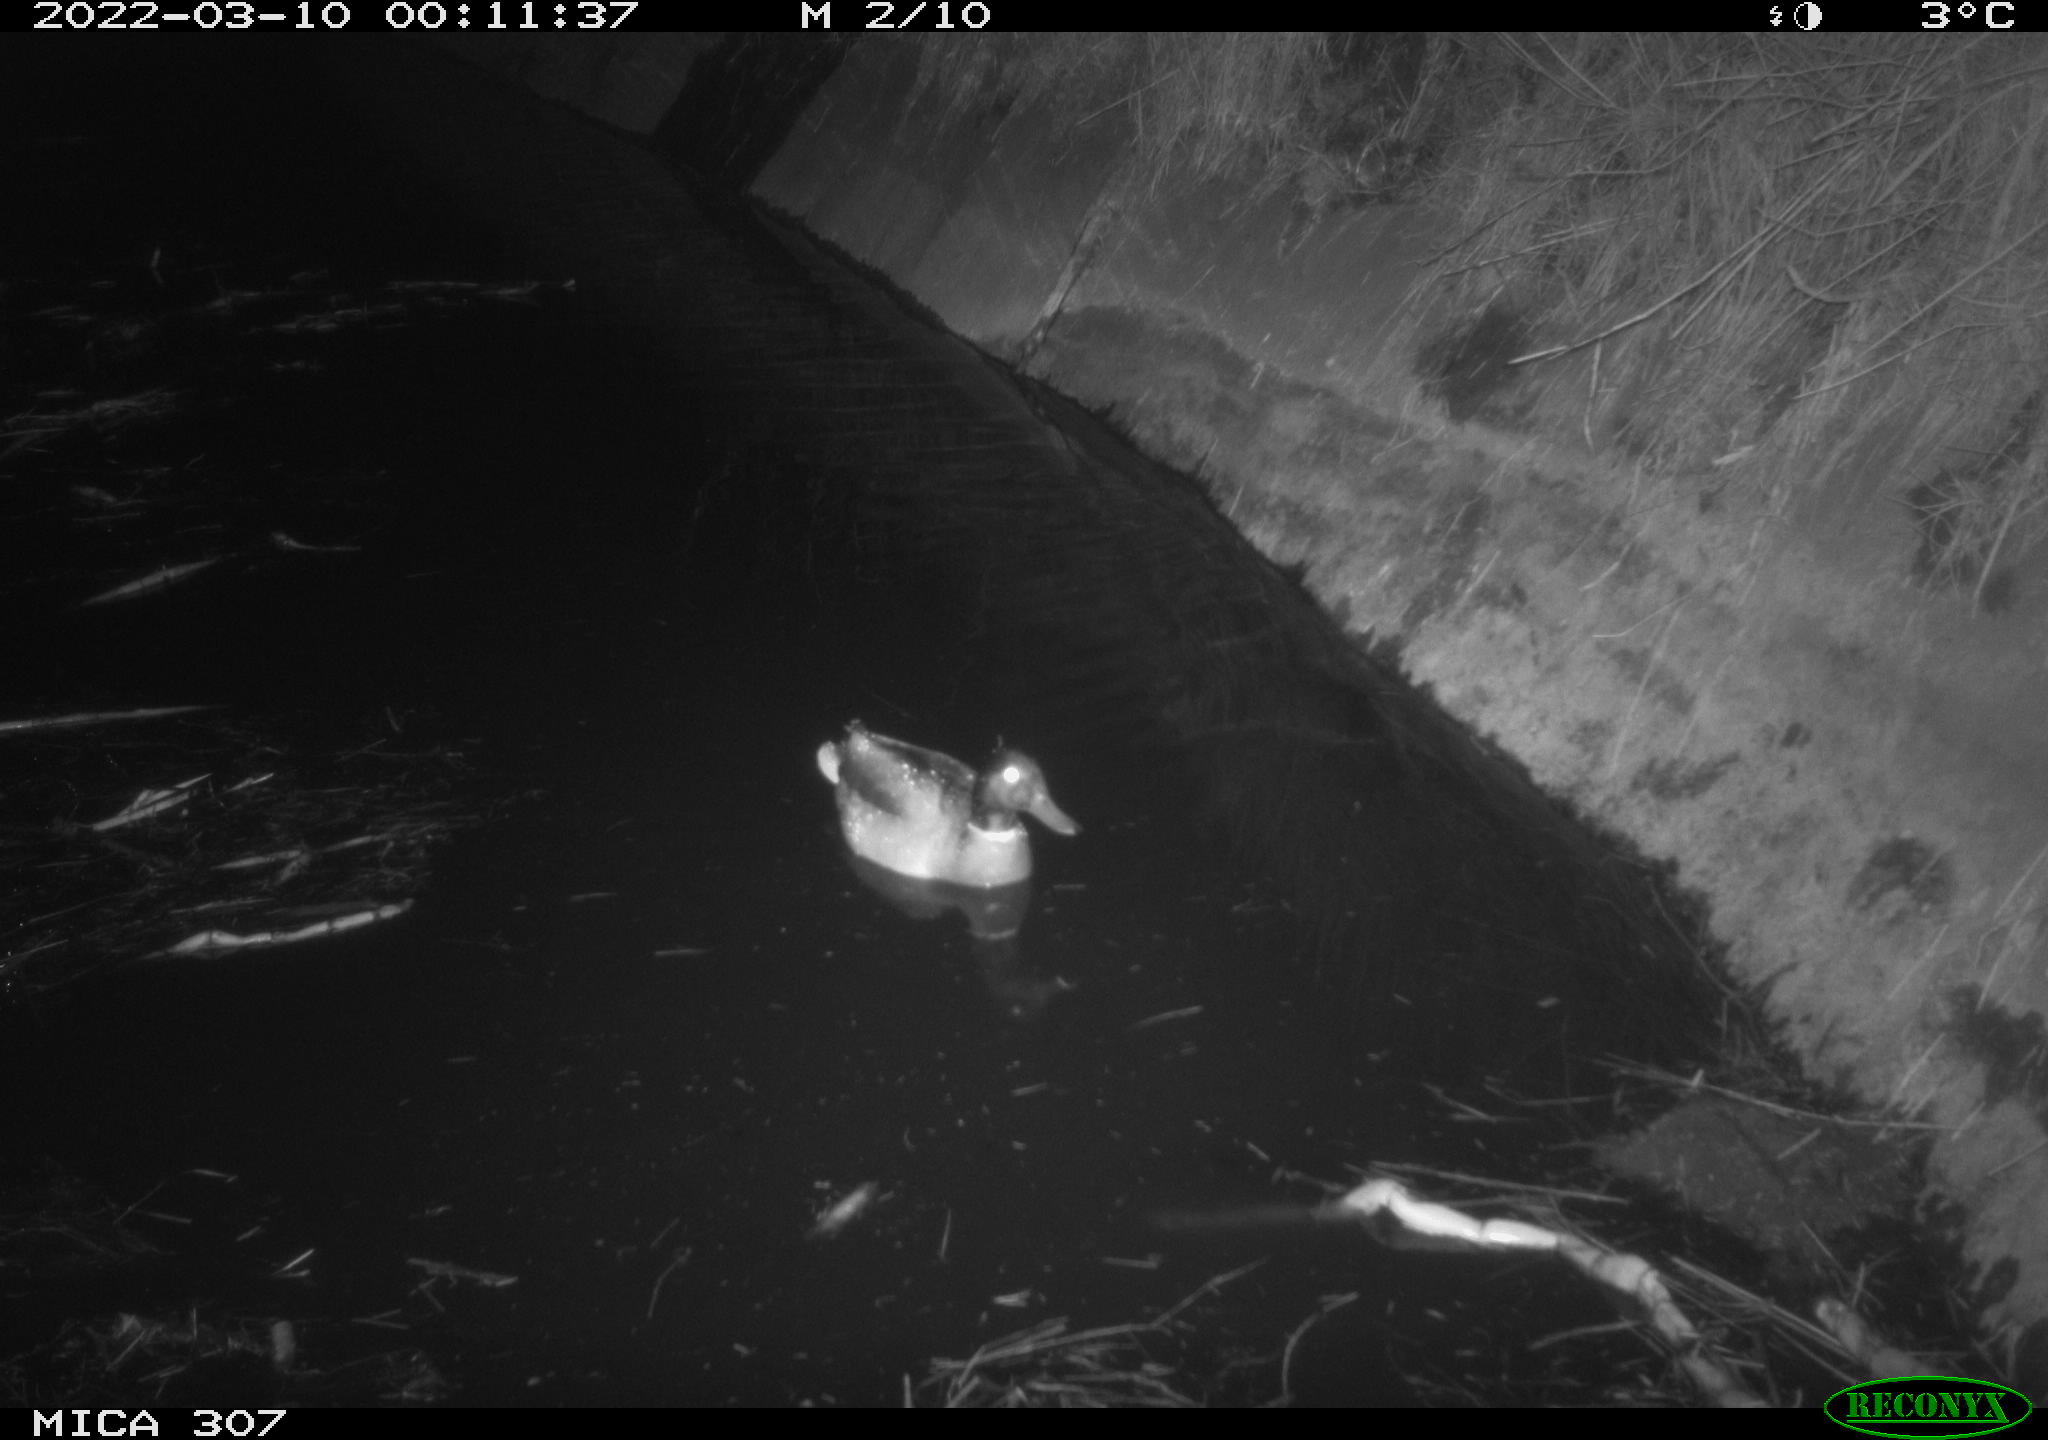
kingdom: Animalia
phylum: Chordata
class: Aves
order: Anseriformes
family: Anatidae
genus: Anas
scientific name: Anas platyrhynchos
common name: Mallard
